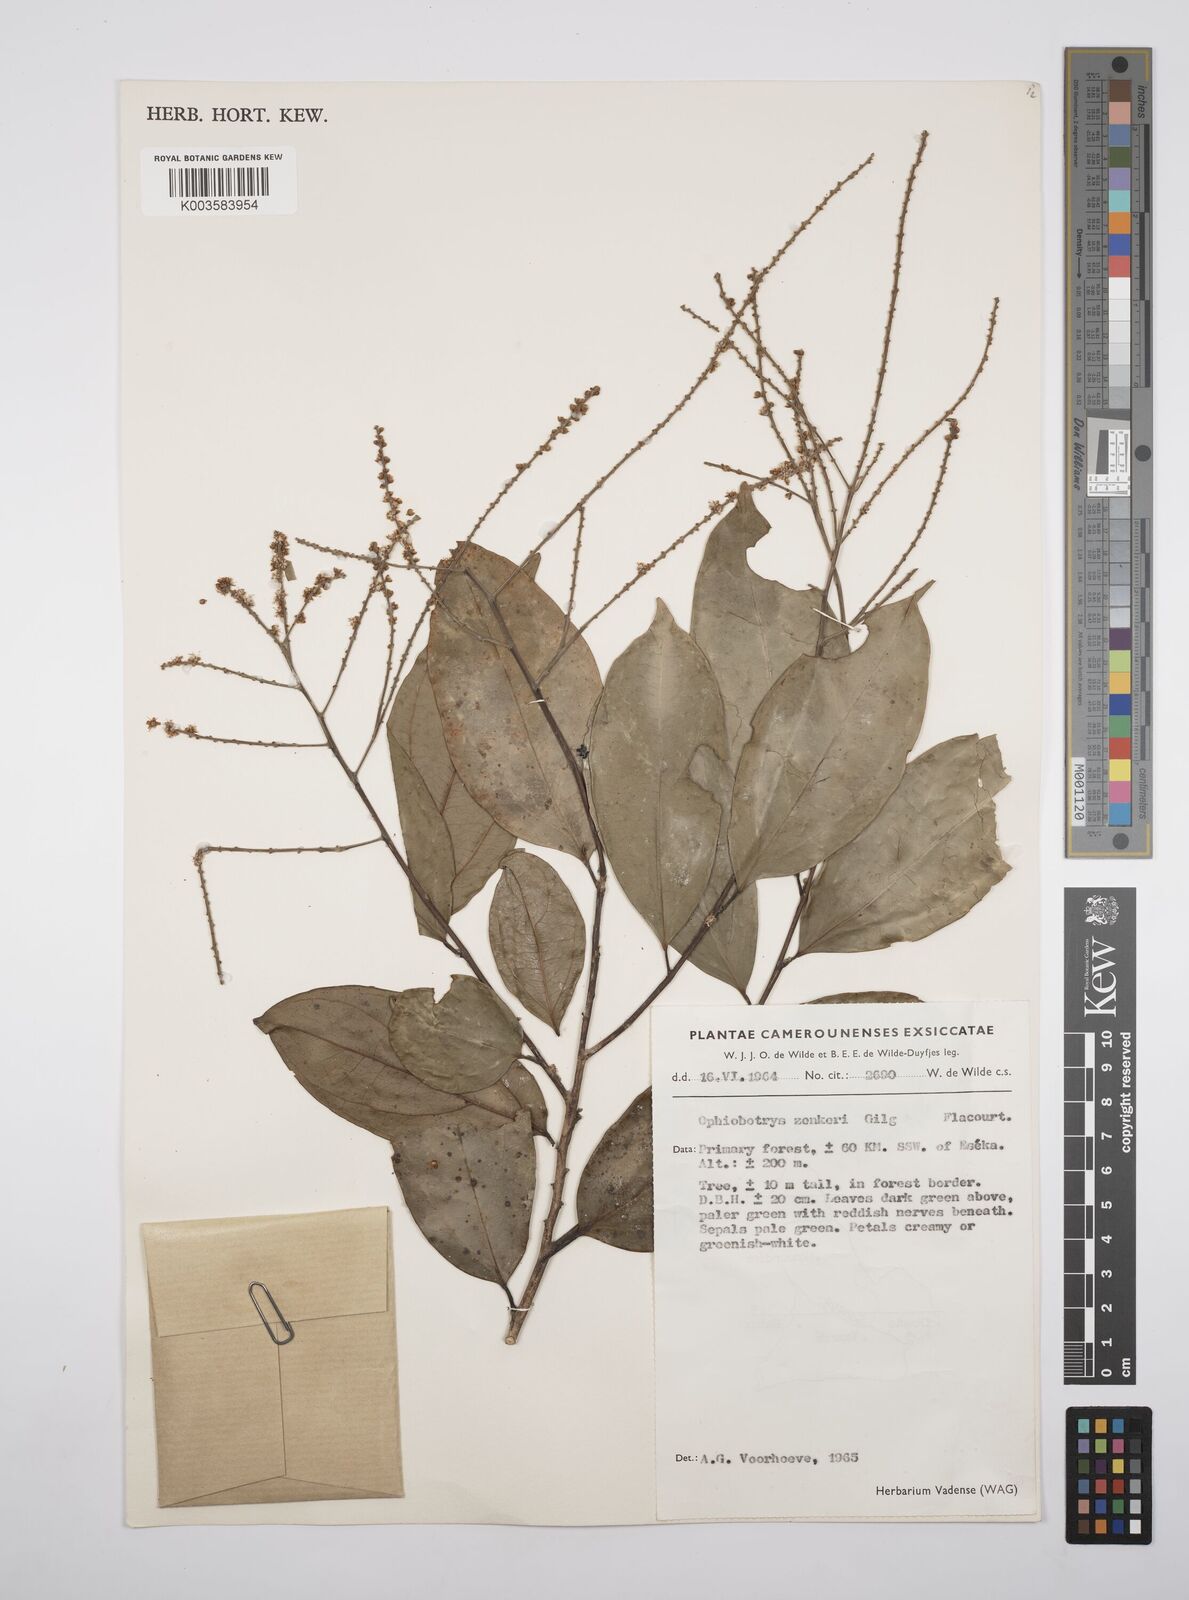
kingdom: Plantae
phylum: Tracheophyta
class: Magnoliopsida
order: Malpighiales
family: Salicaceae
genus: Ophiobotrys
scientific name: Ophiobotrys zenkeri
